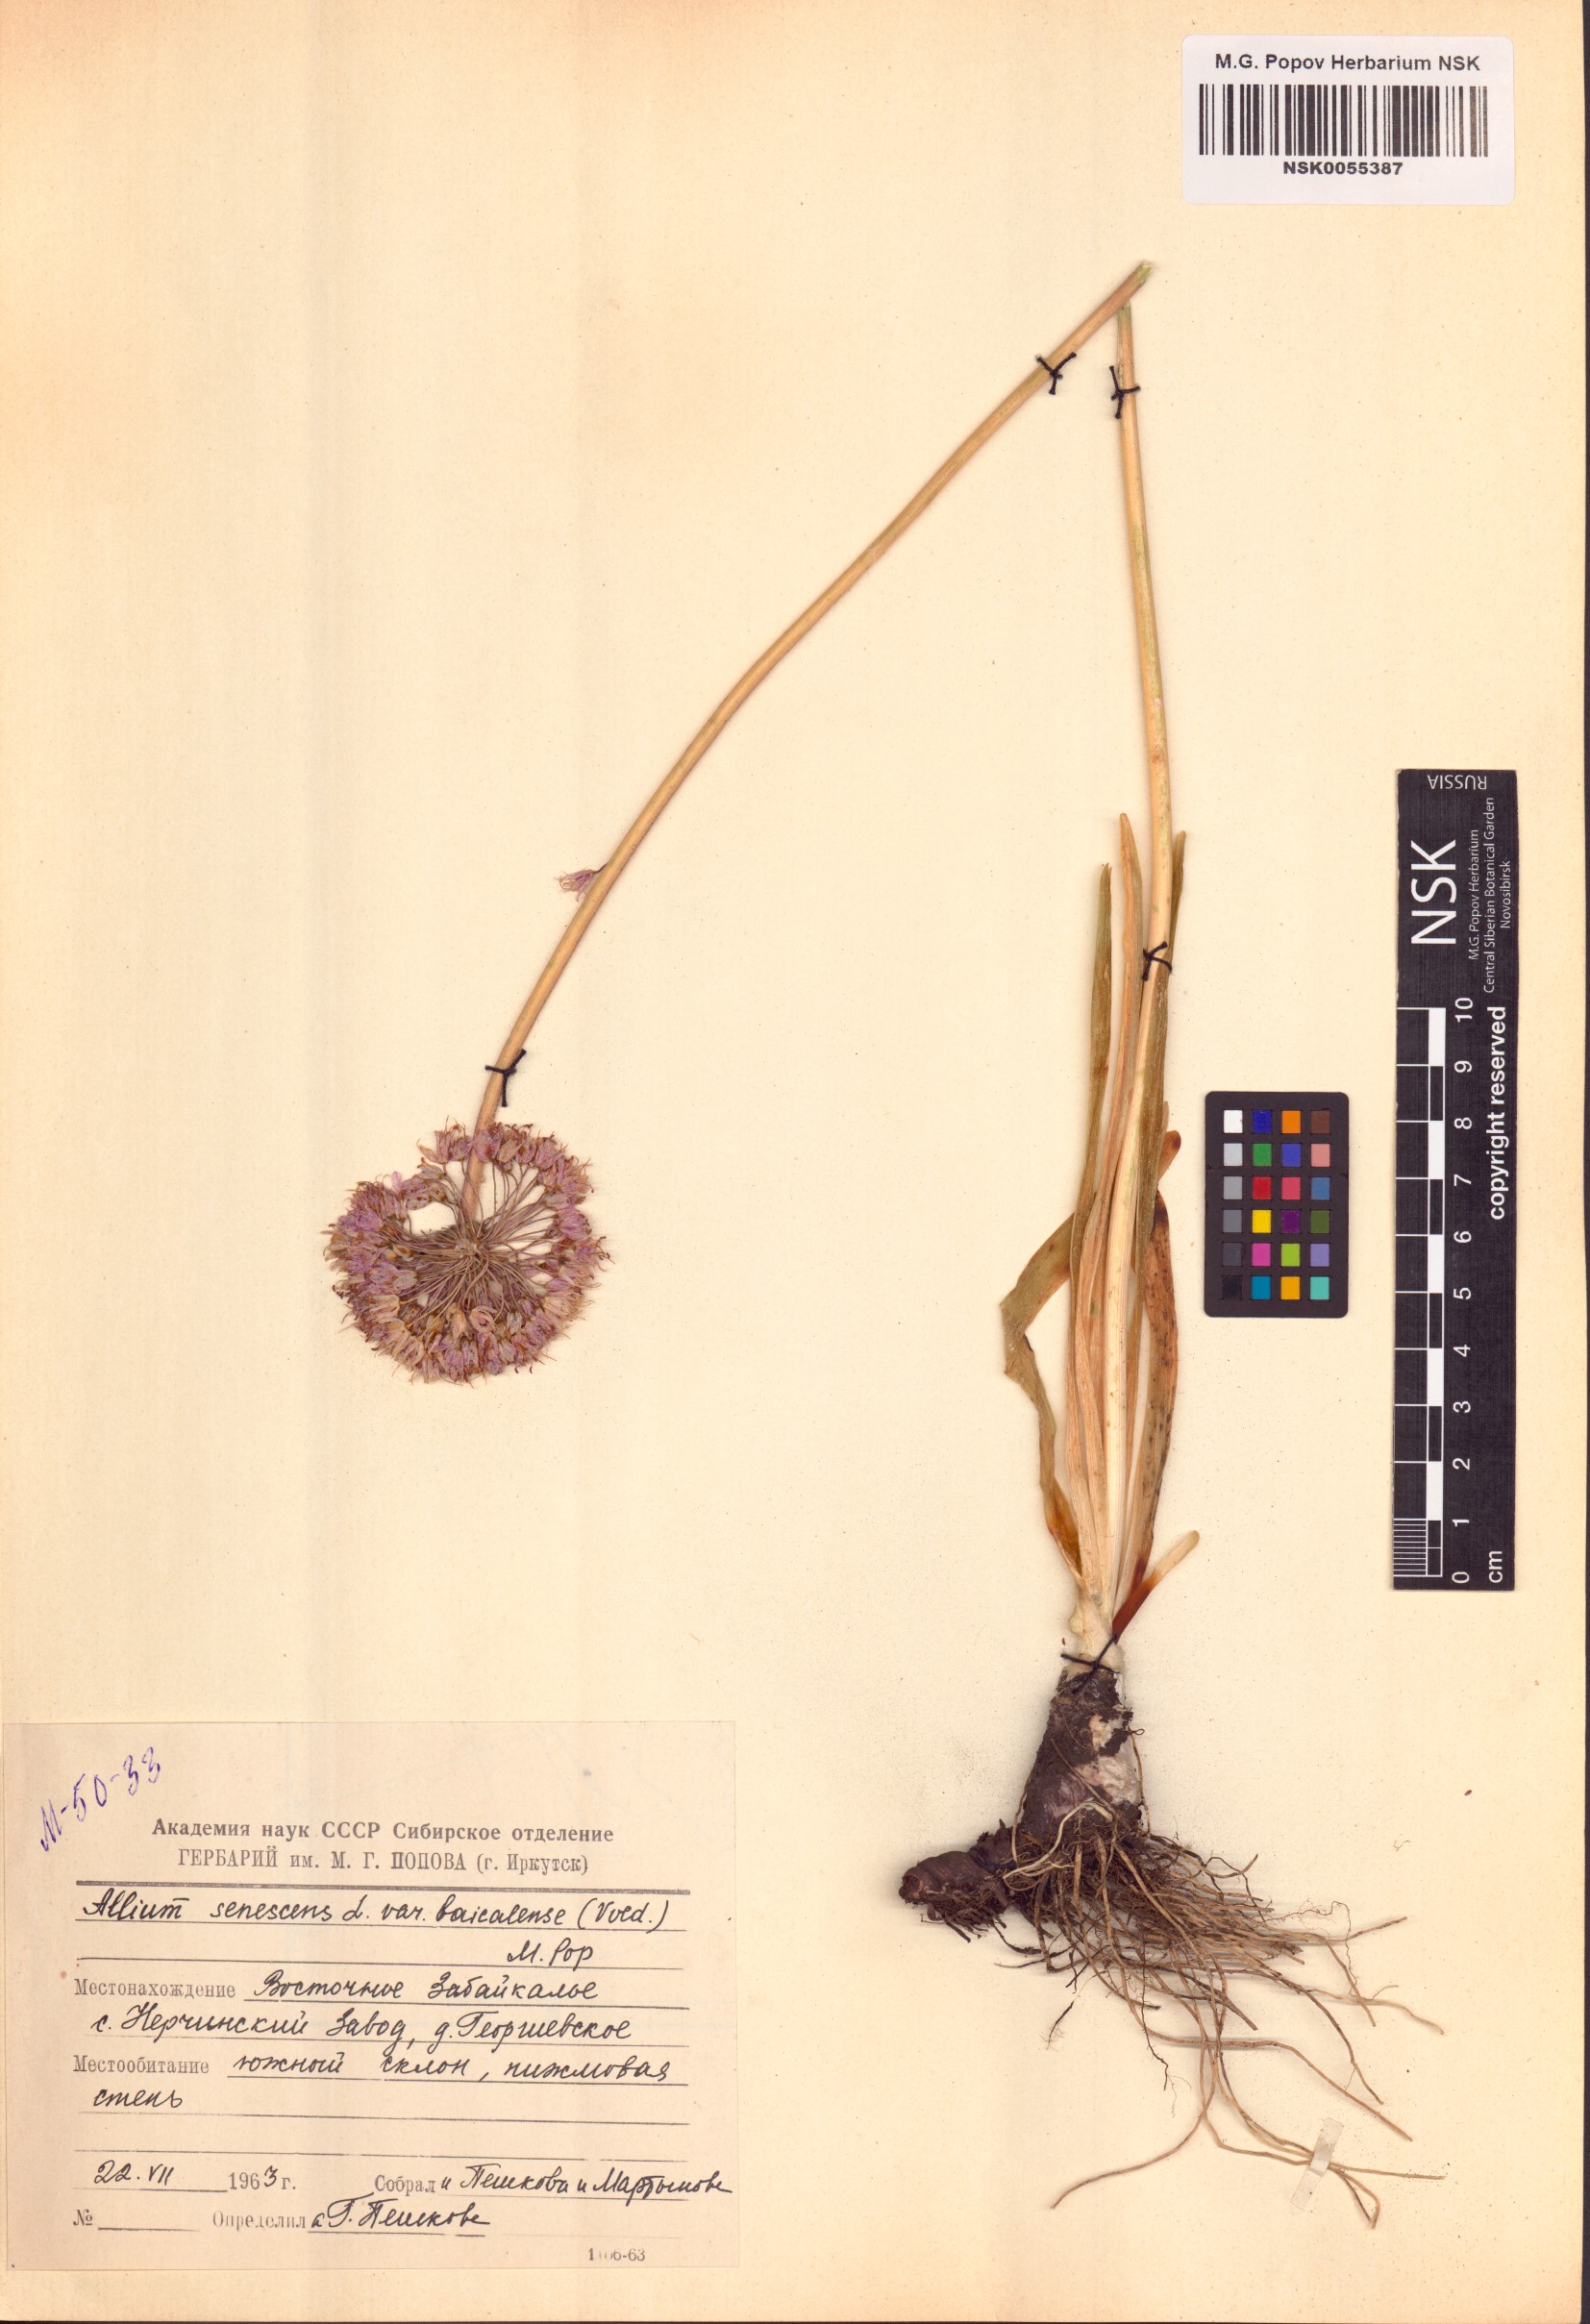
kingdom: Plantae
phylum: Tracheophyta
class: Liliopsida
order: Asparagales
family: Amaryllidaceae
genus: Allium
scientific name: Allium senescens
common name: German garlic
